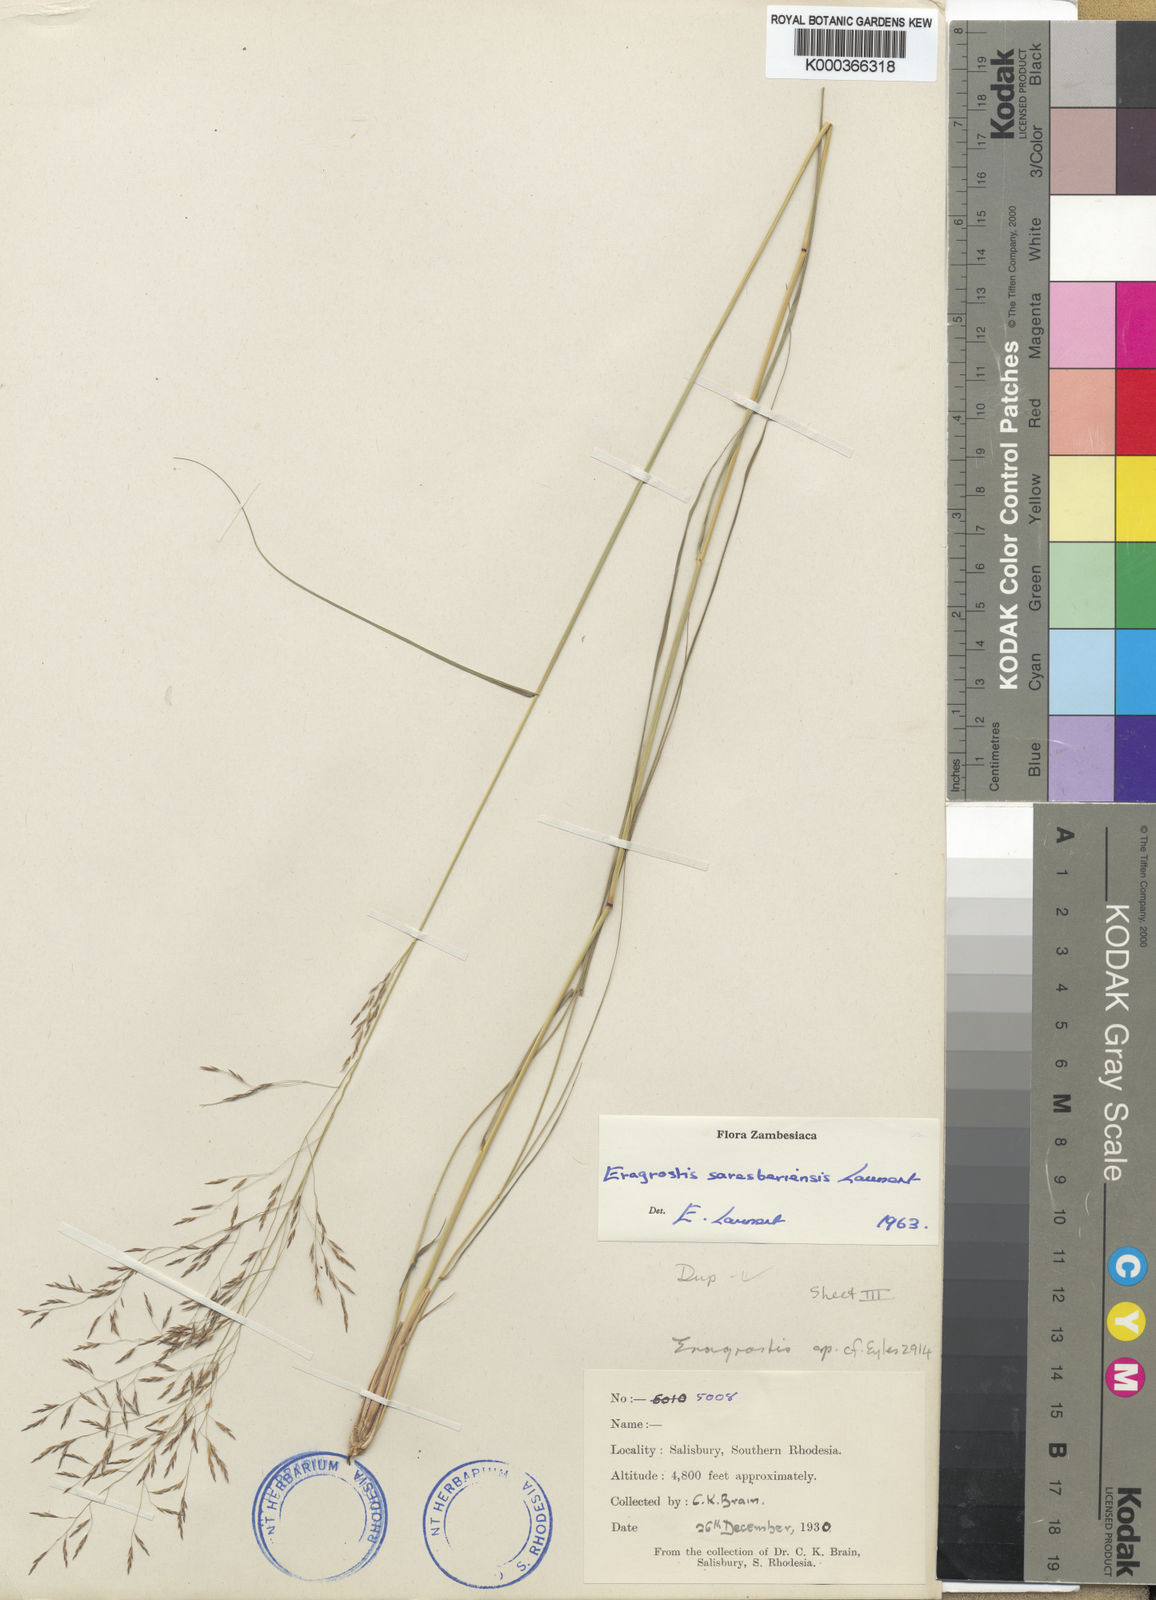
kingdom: Plantae
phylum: Tracheophyta
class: Liliopsida
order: Poales
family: Poaceae
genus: Eragrostis
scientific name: Eragrostis saresberiensis
